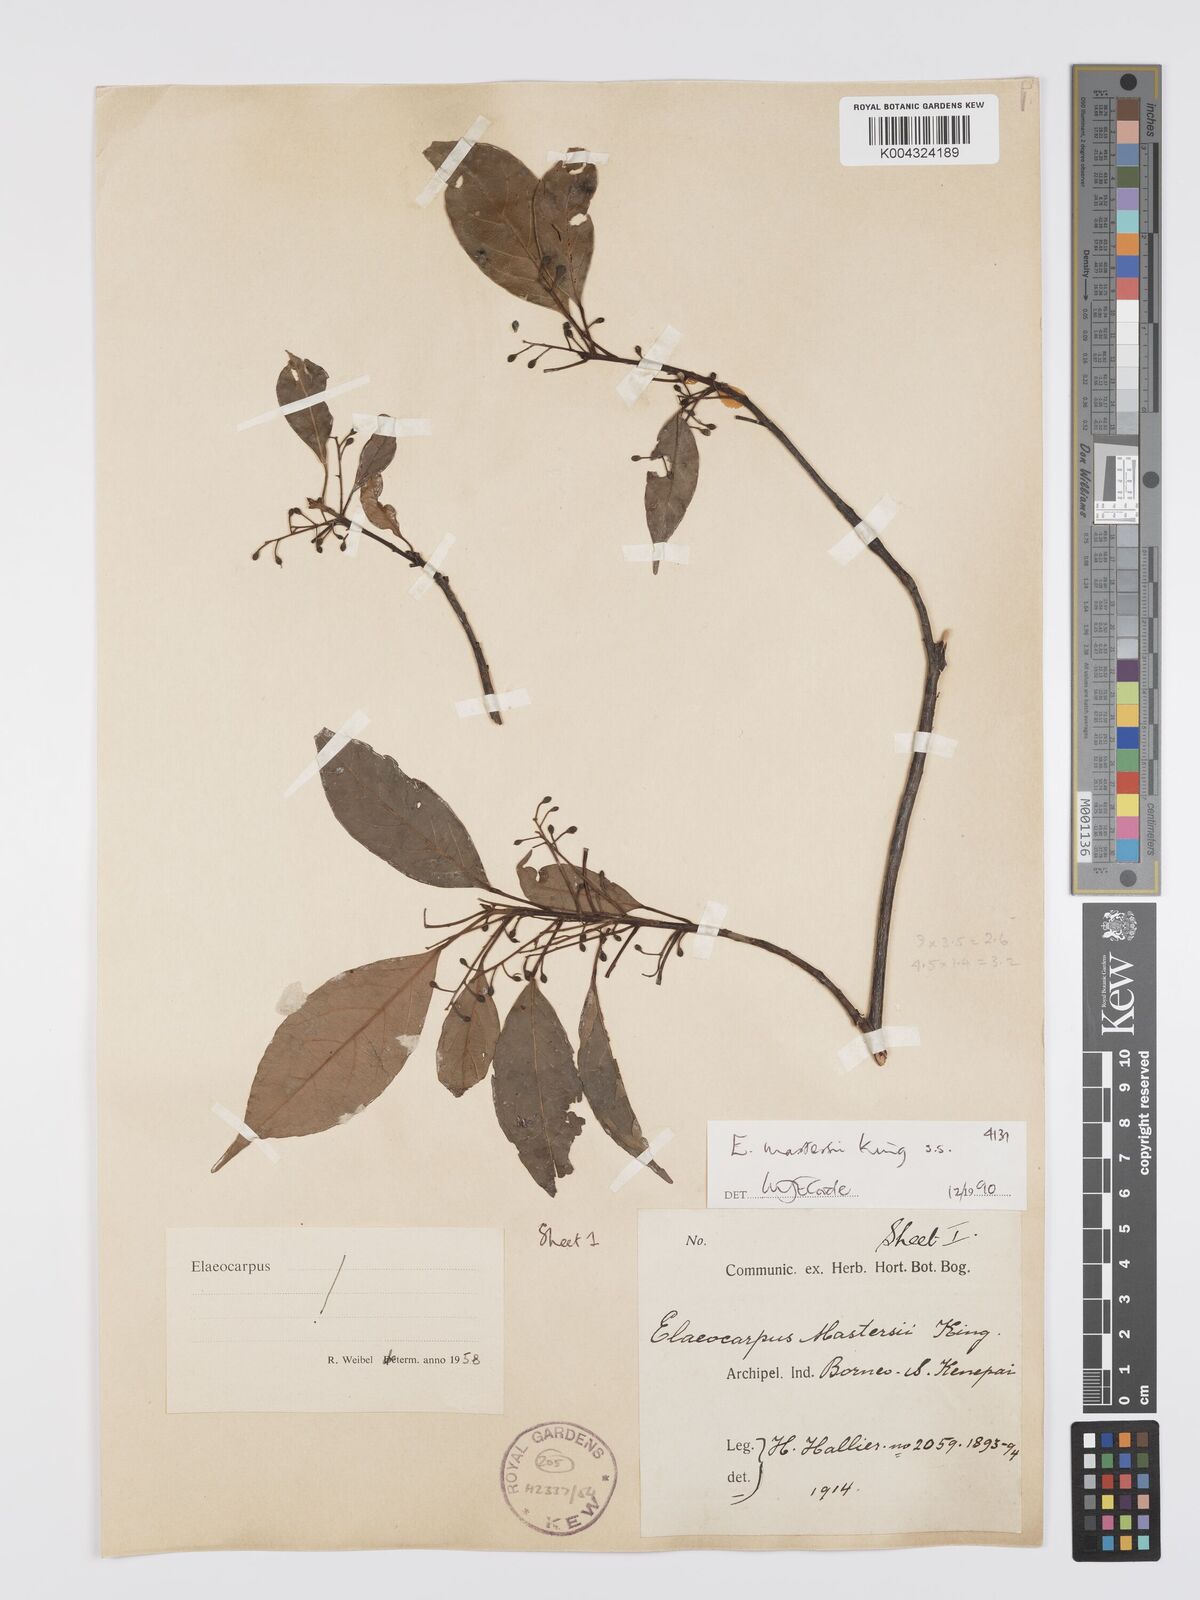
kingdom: Plantae
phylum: Tracheophyta
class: Magnoliopsida
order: Oxalidales
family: Elaeocarpaceae
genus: Elaeocarpus
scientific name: Elaeocarpus mastersii
